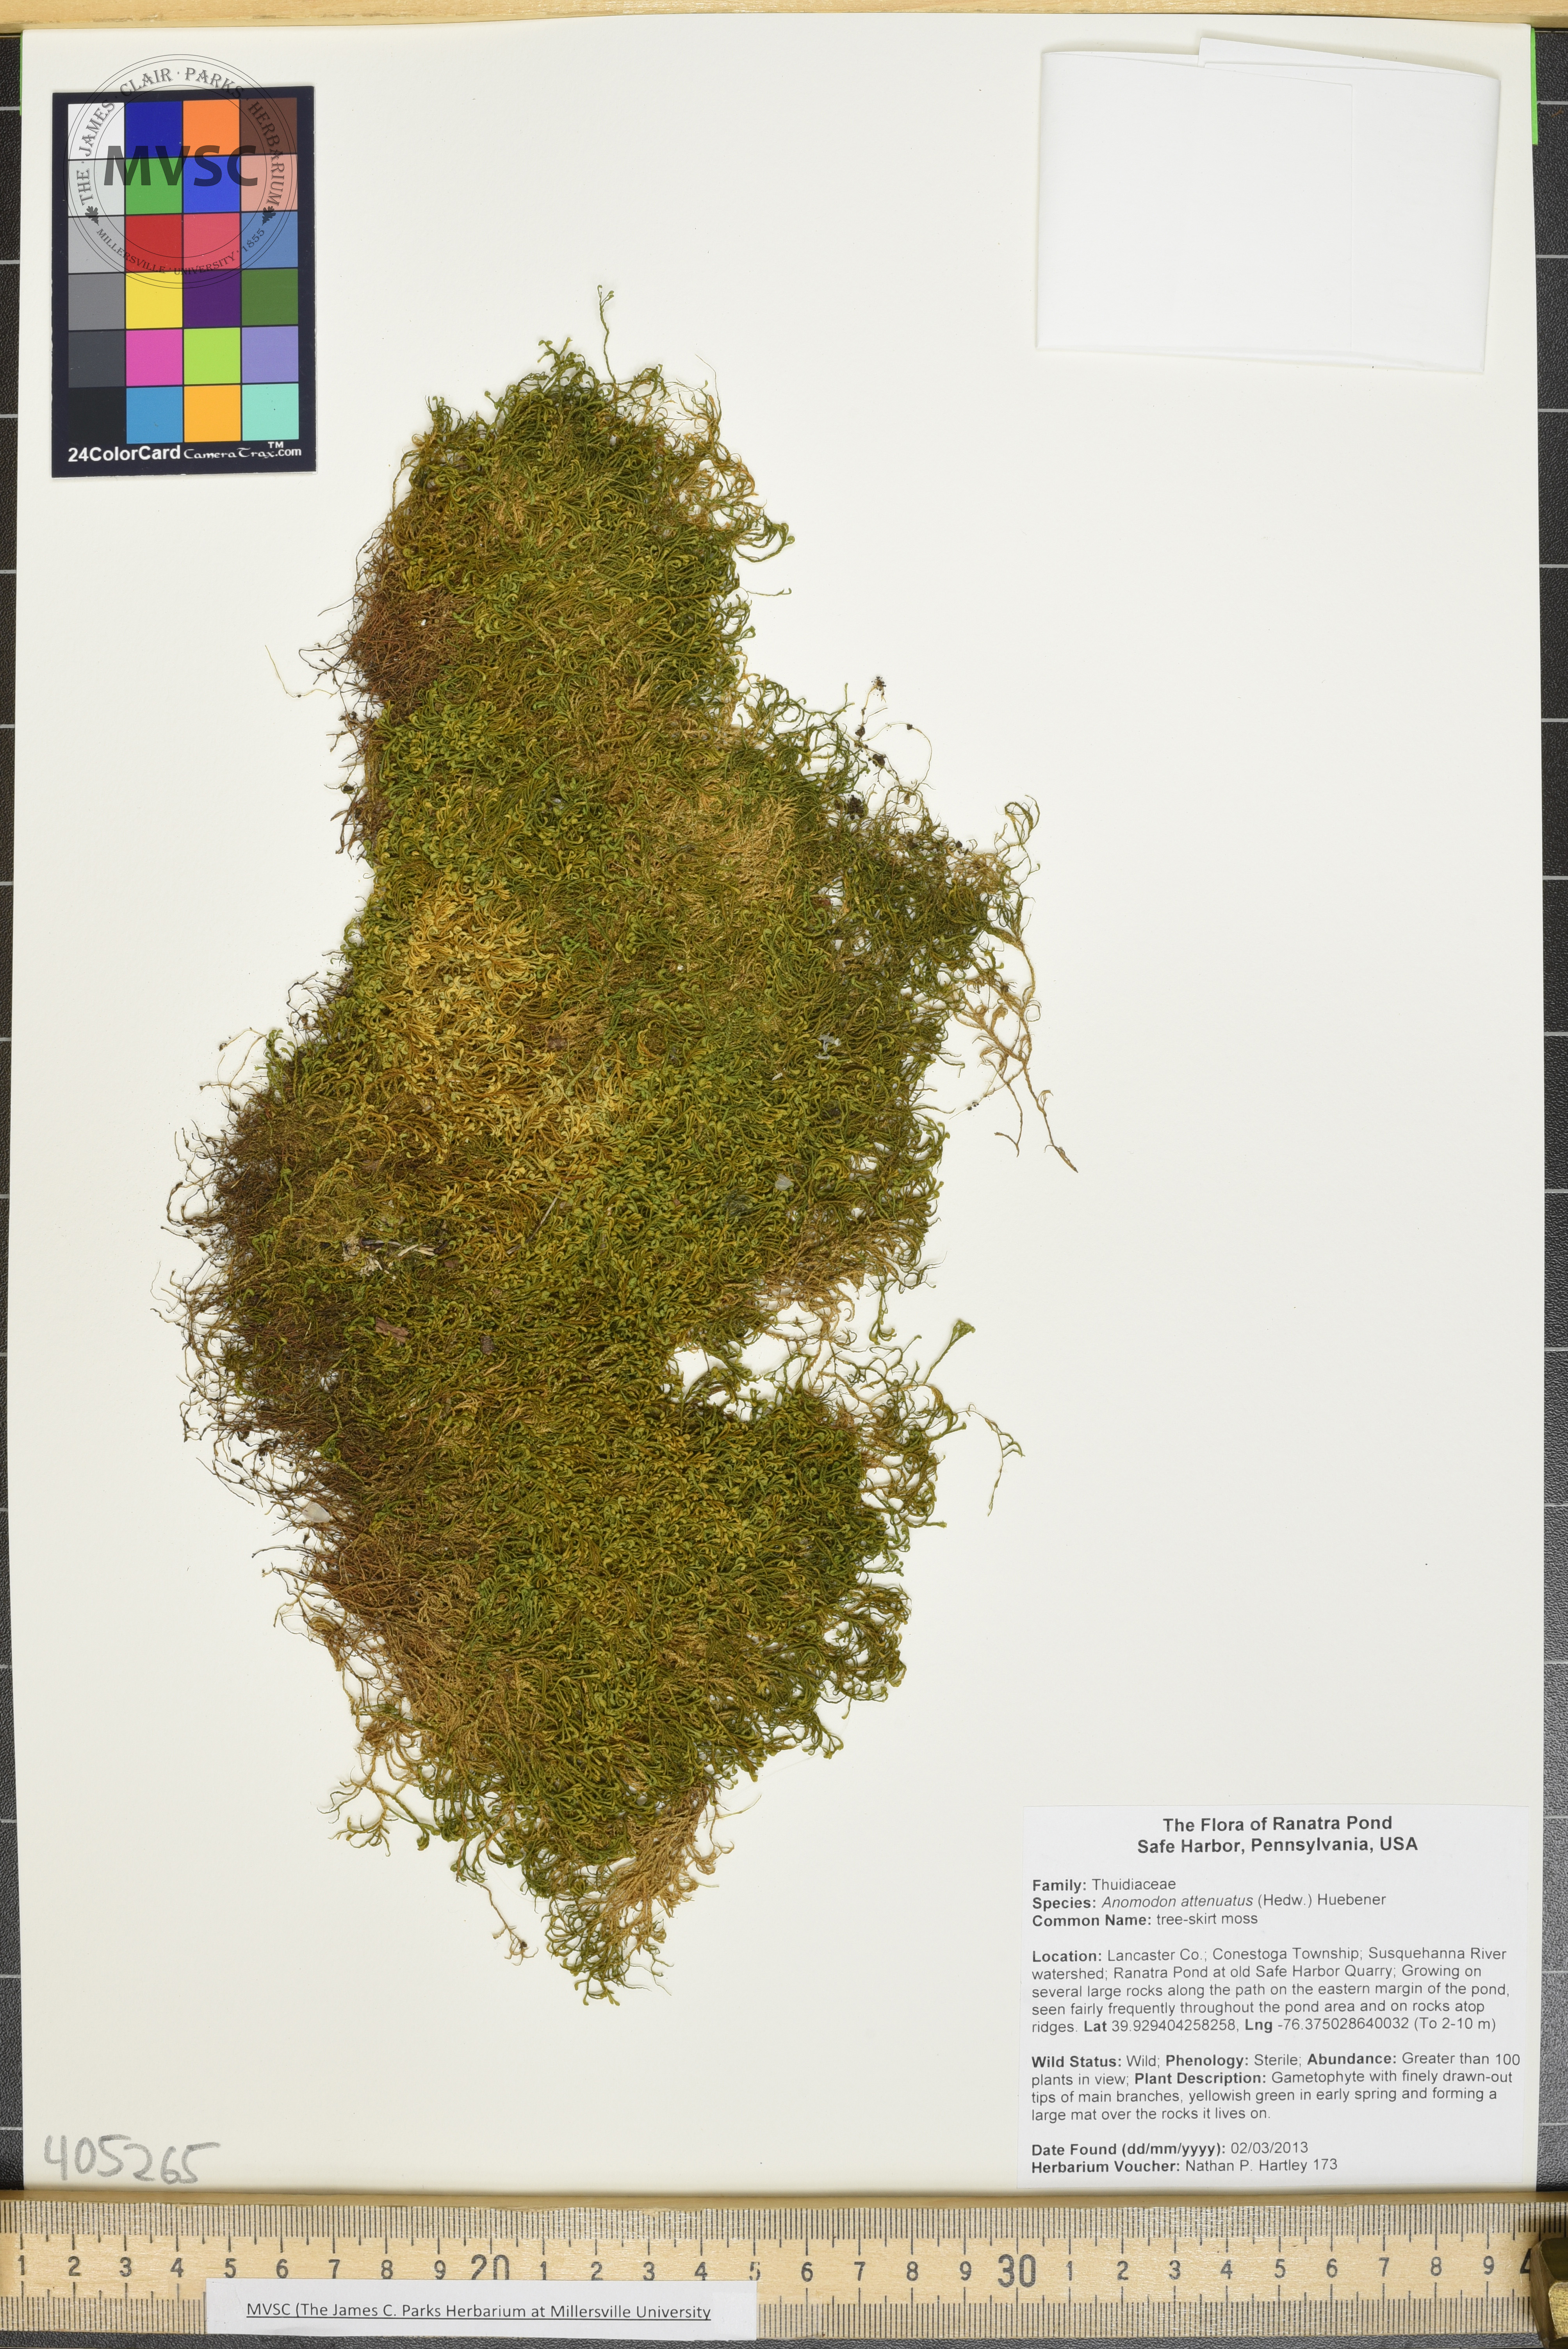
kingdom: Plantae
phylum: Bryophyta
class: Bryopsida
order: Hypnales
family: Neckeraceae
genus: Pseudanomodon
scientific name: Pseudanomodon attenuatus
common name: tree-skirt moss
